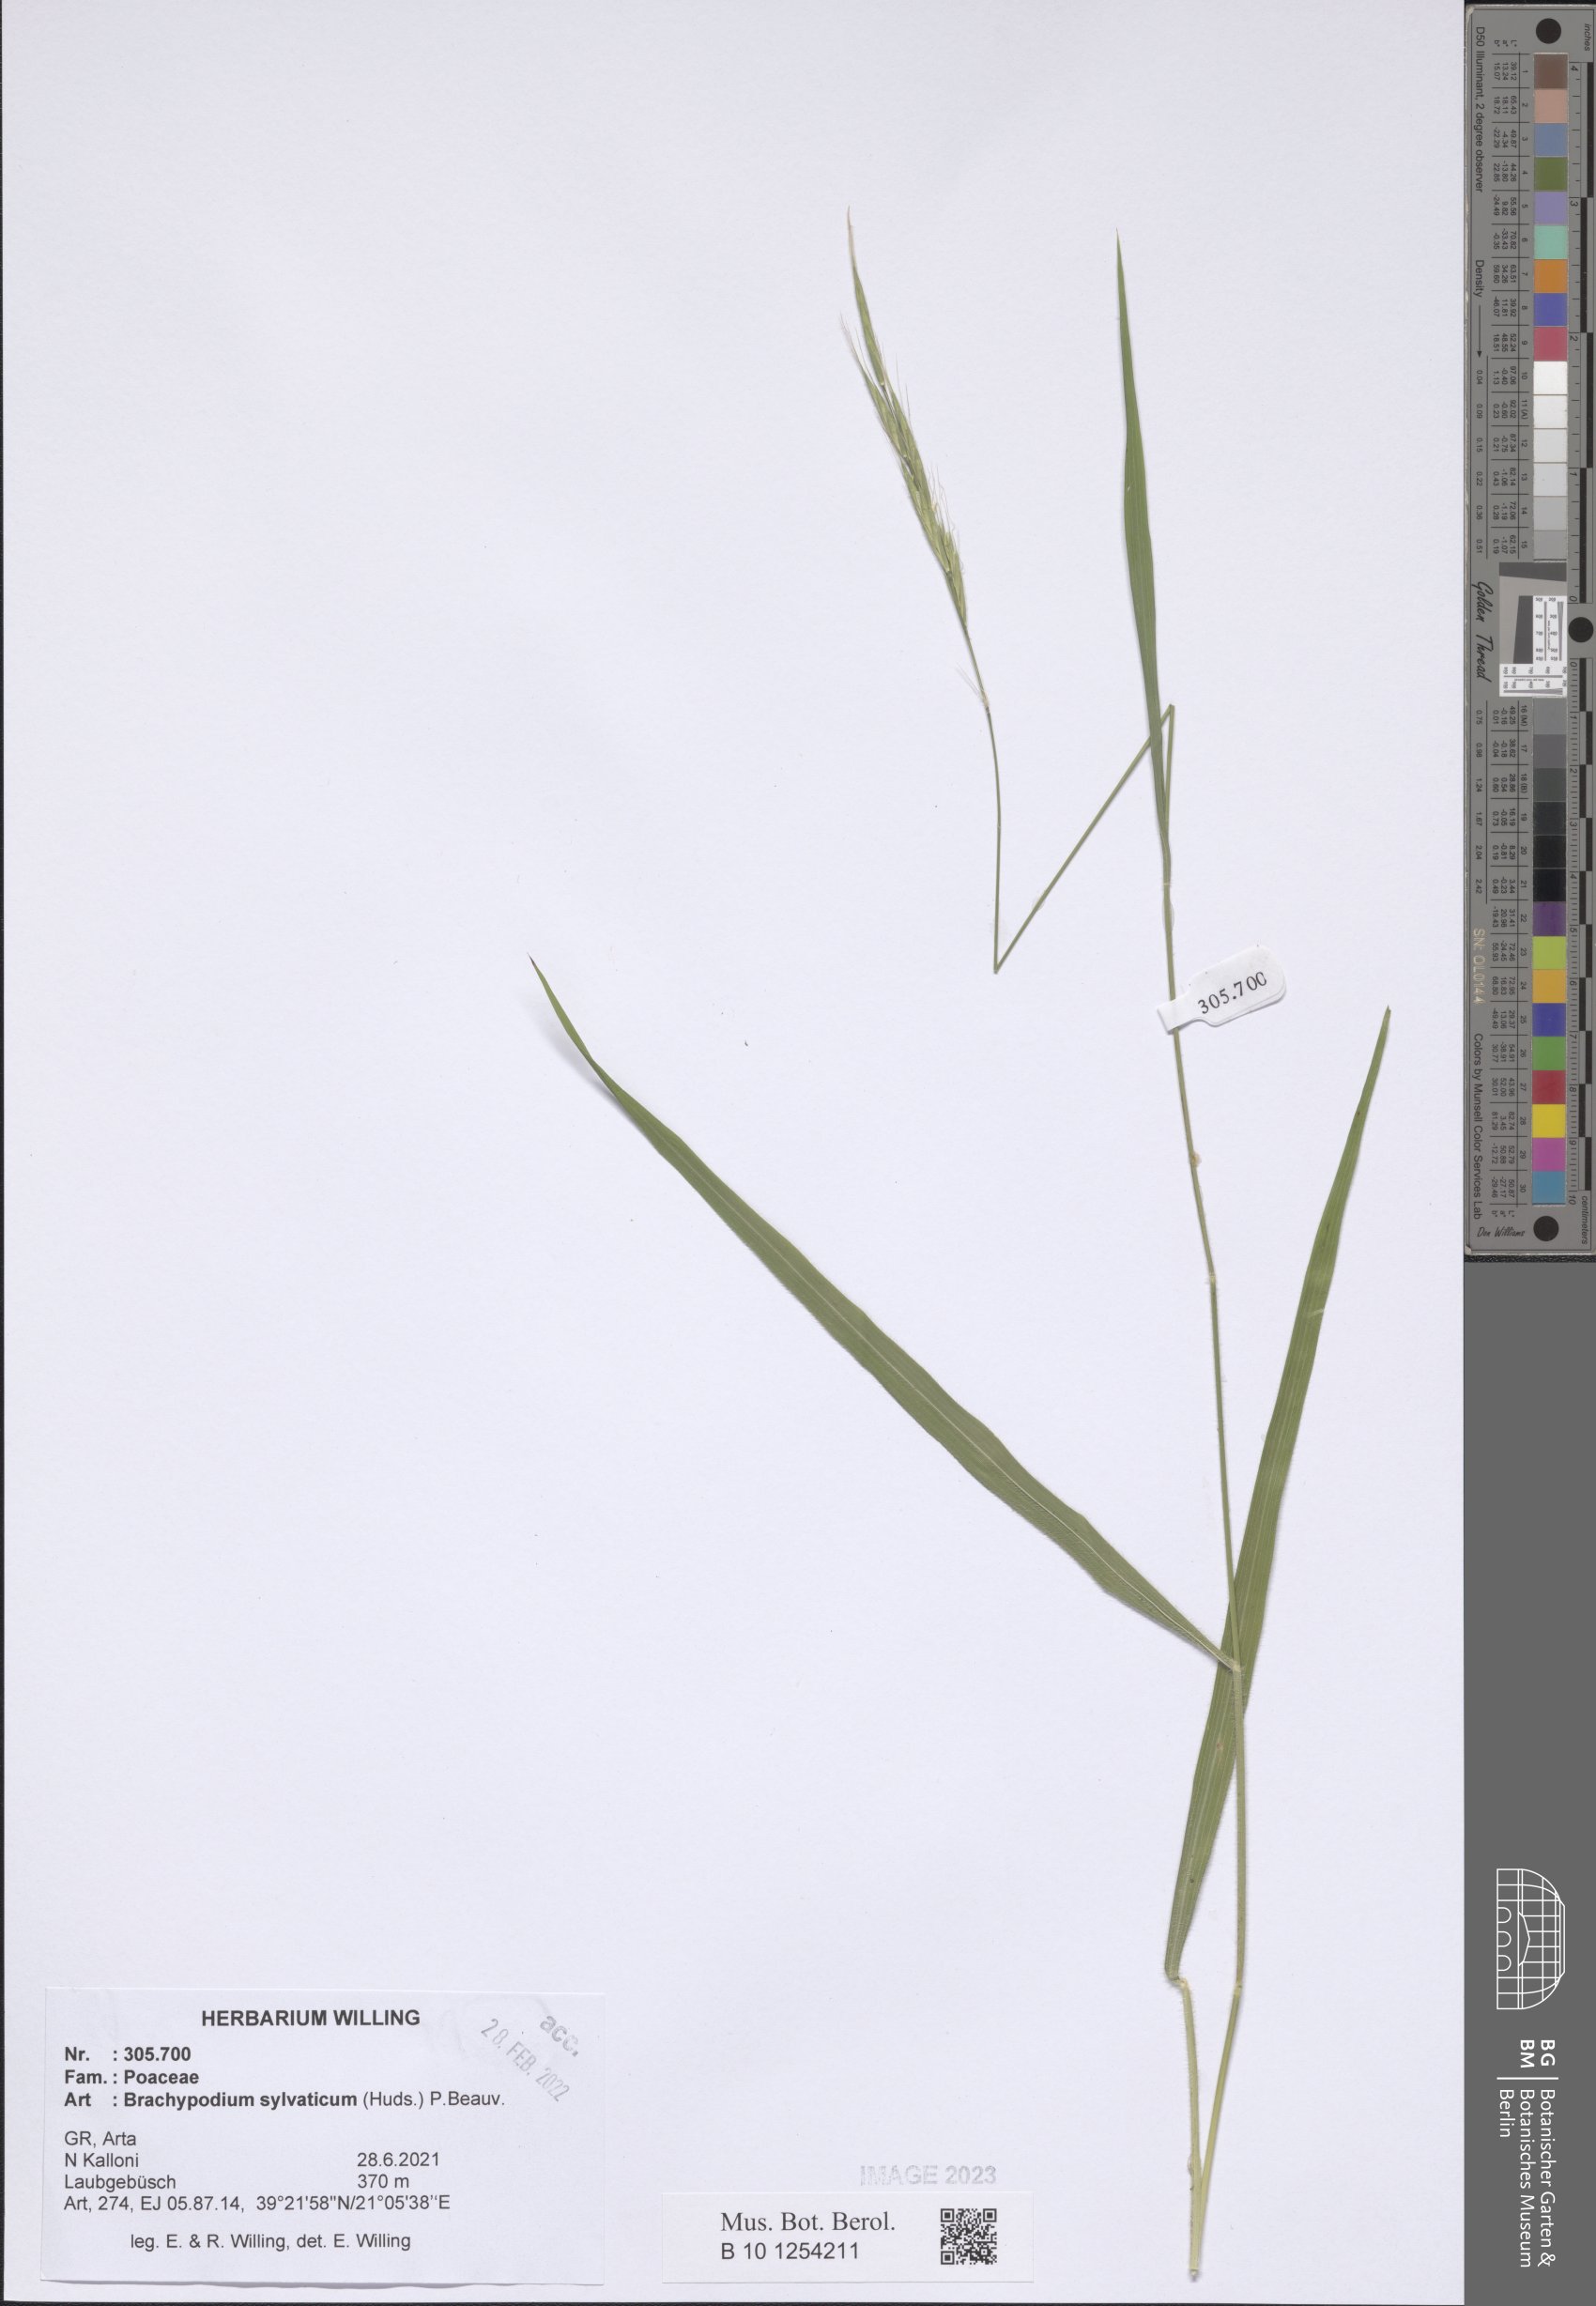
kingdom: Plantae
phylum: Tracheophyta
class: Liliopsida
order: Poales
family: Poaceae
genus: Brachypodium
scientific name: Brachypodium sylvaticum
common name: False-brome
